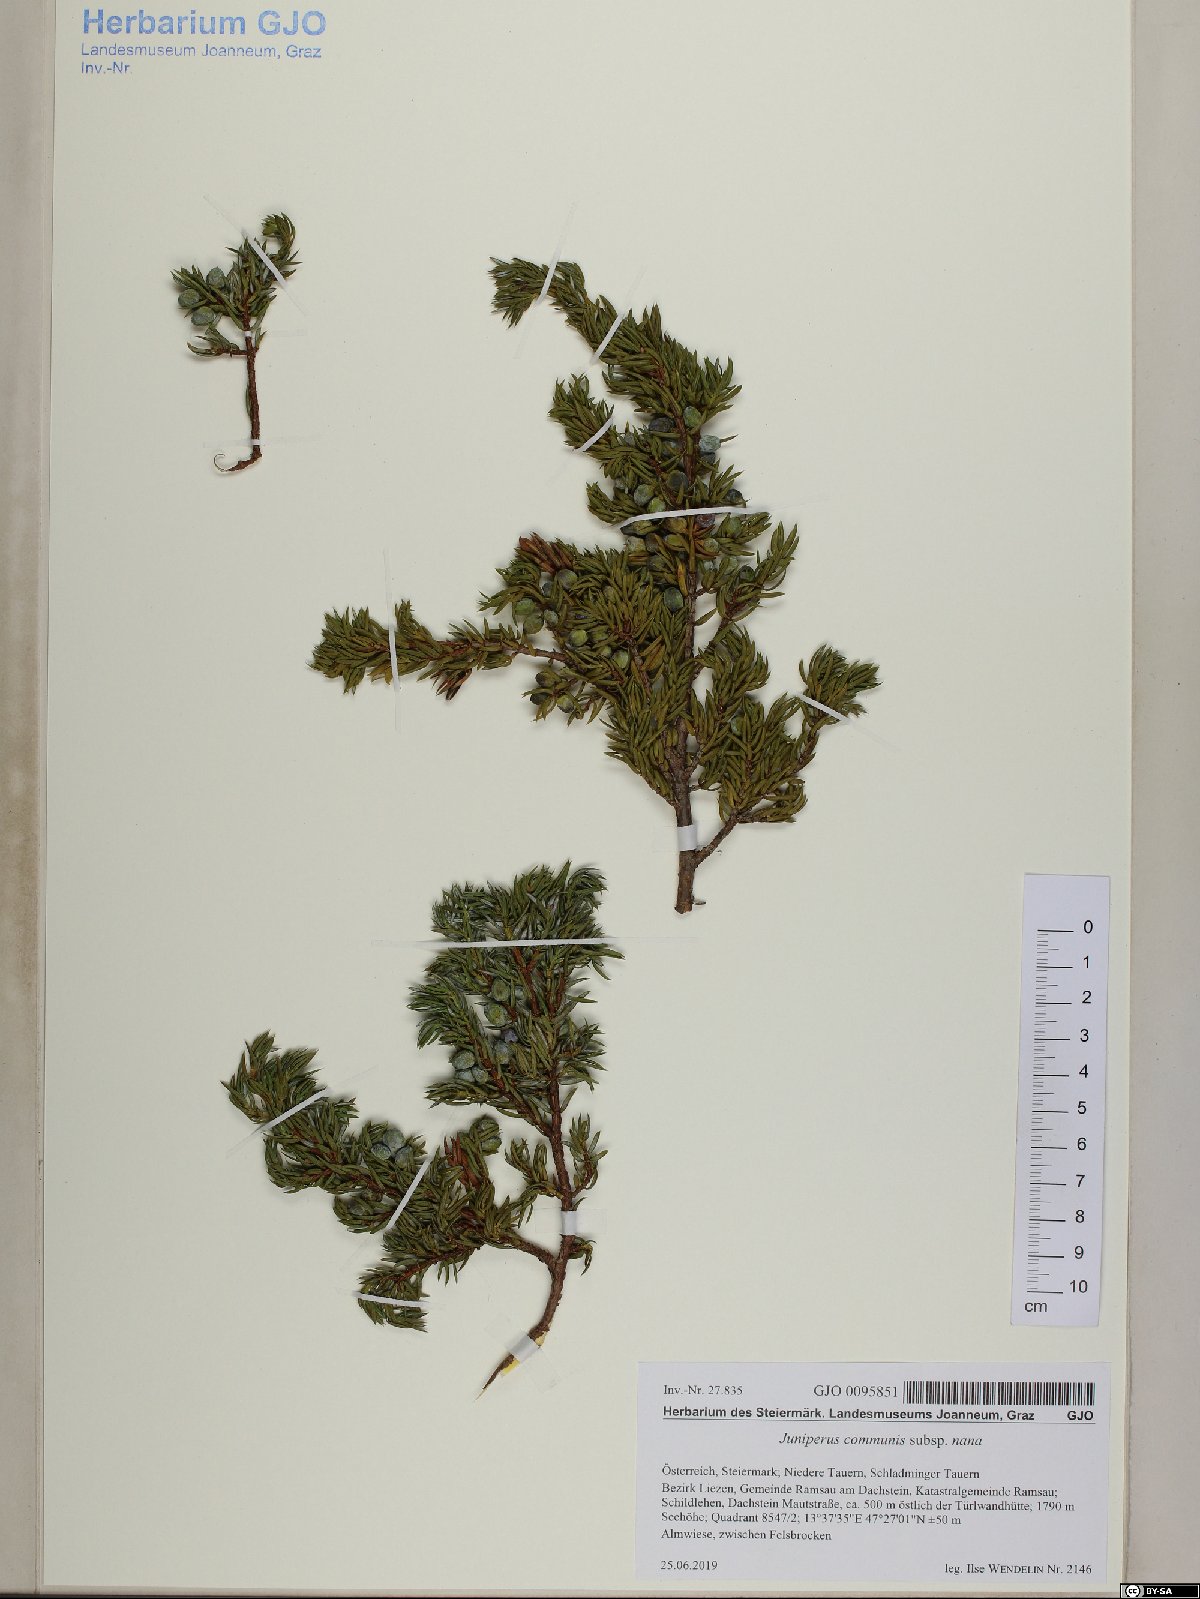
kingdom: Plantae
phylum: Tracheophyta
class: Pinopsida
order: Pinales
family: Cupressaceae
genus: Juniperus
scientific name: Juniperus communis
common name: Common juniper
